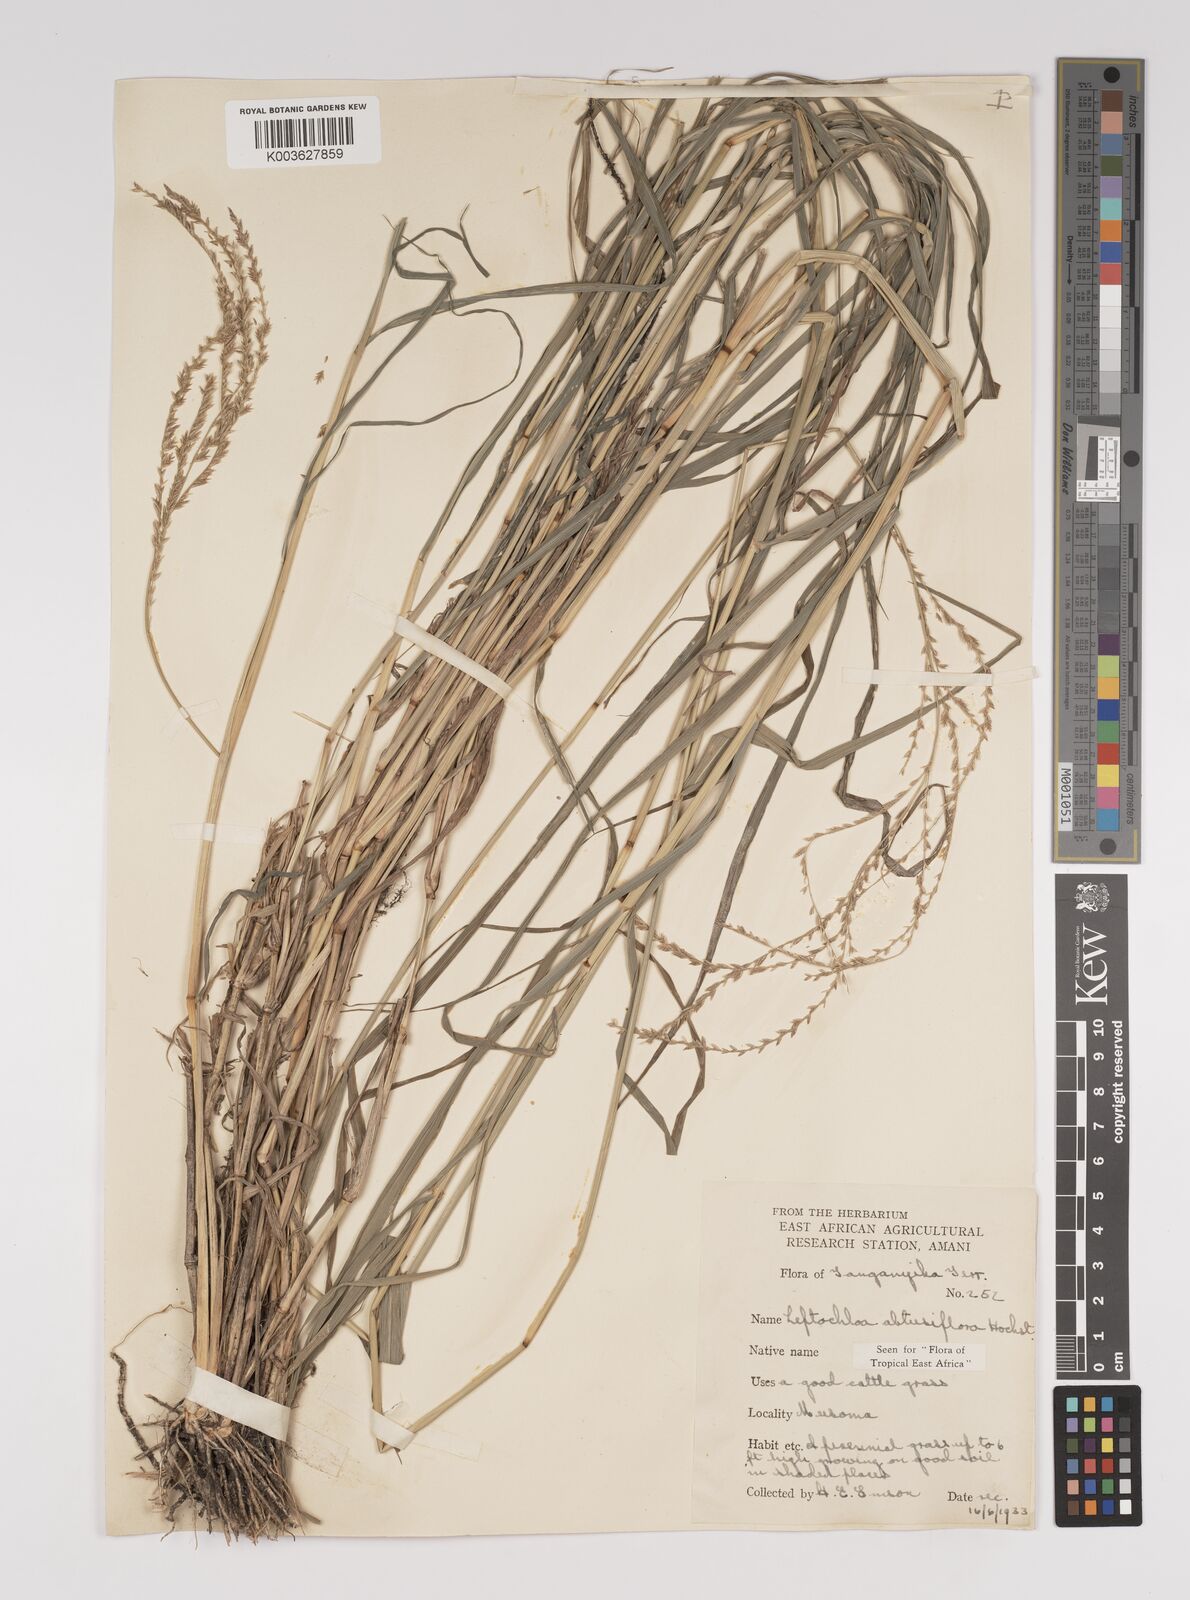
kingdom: Plantae
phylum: Tracheophyta
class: Liliopsida
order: Poales
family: Poaceae
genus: Disakisperma
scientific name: Disakisperma obtusiflorum
